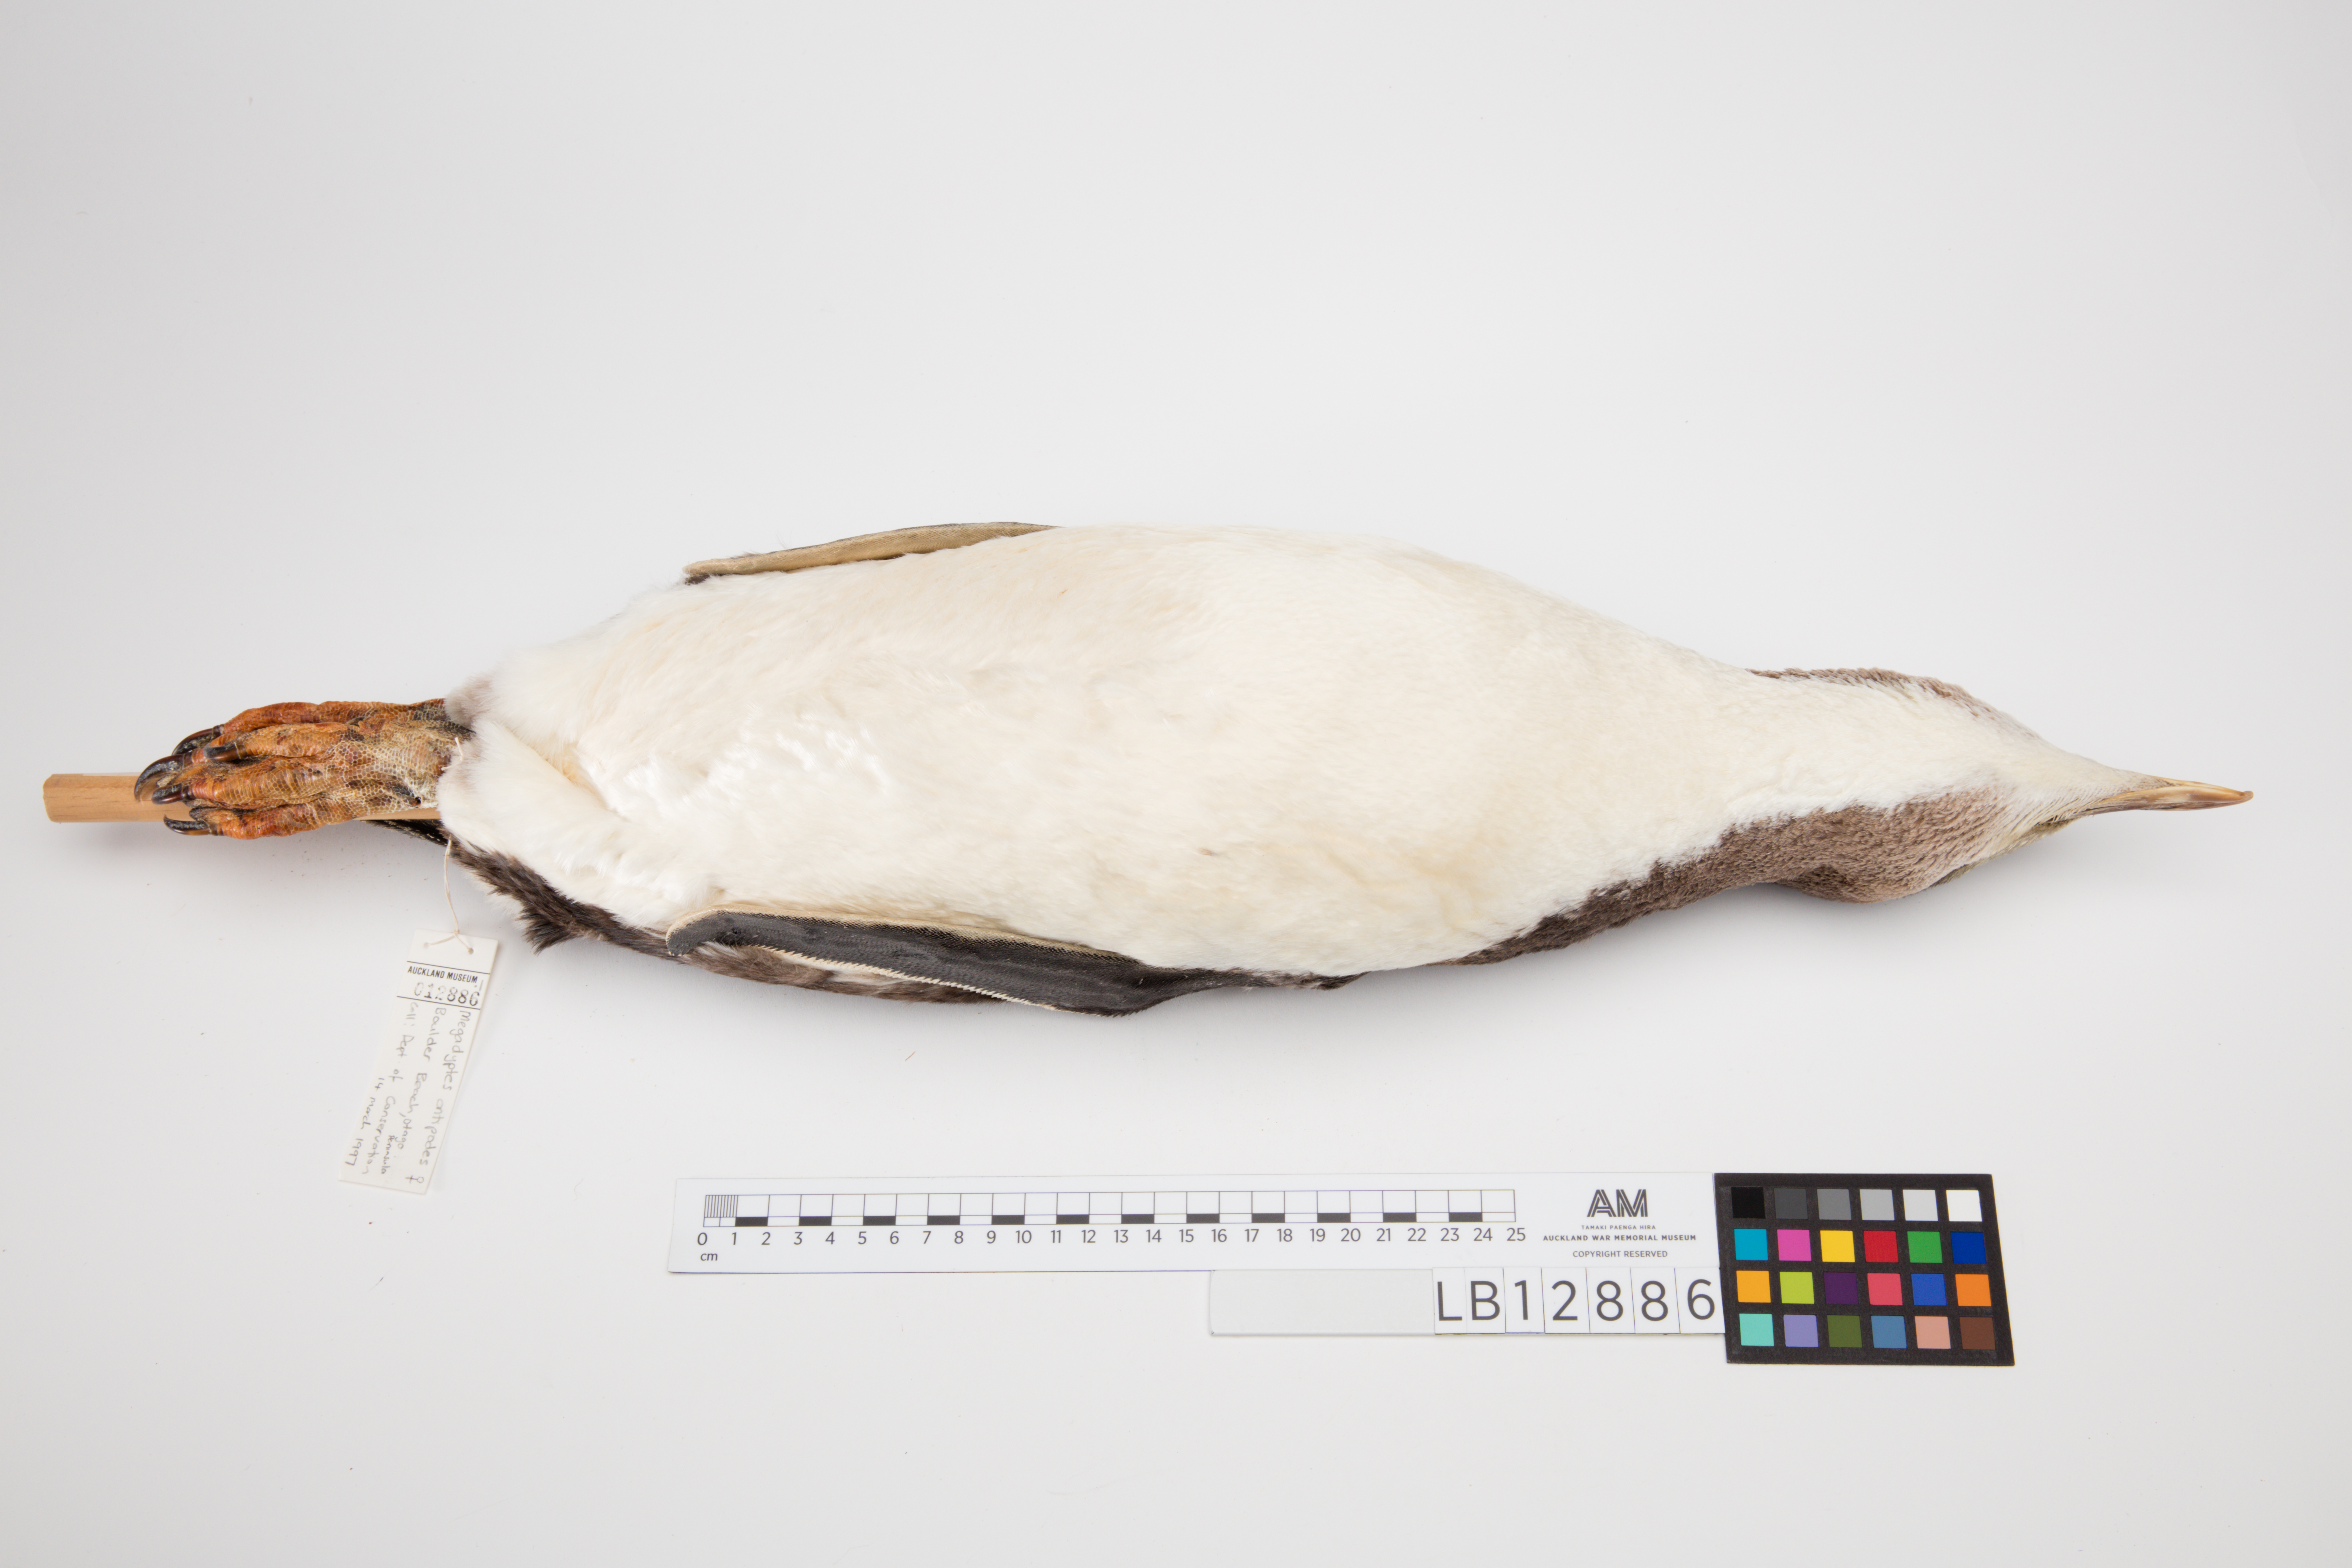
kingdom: Animalia
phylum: Chordata
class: Aves
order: Sphenisciformes
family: Spheniscidae
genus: Megadyptes
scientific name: Megadyptes antipodes
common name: Yellow-eyed penguin
